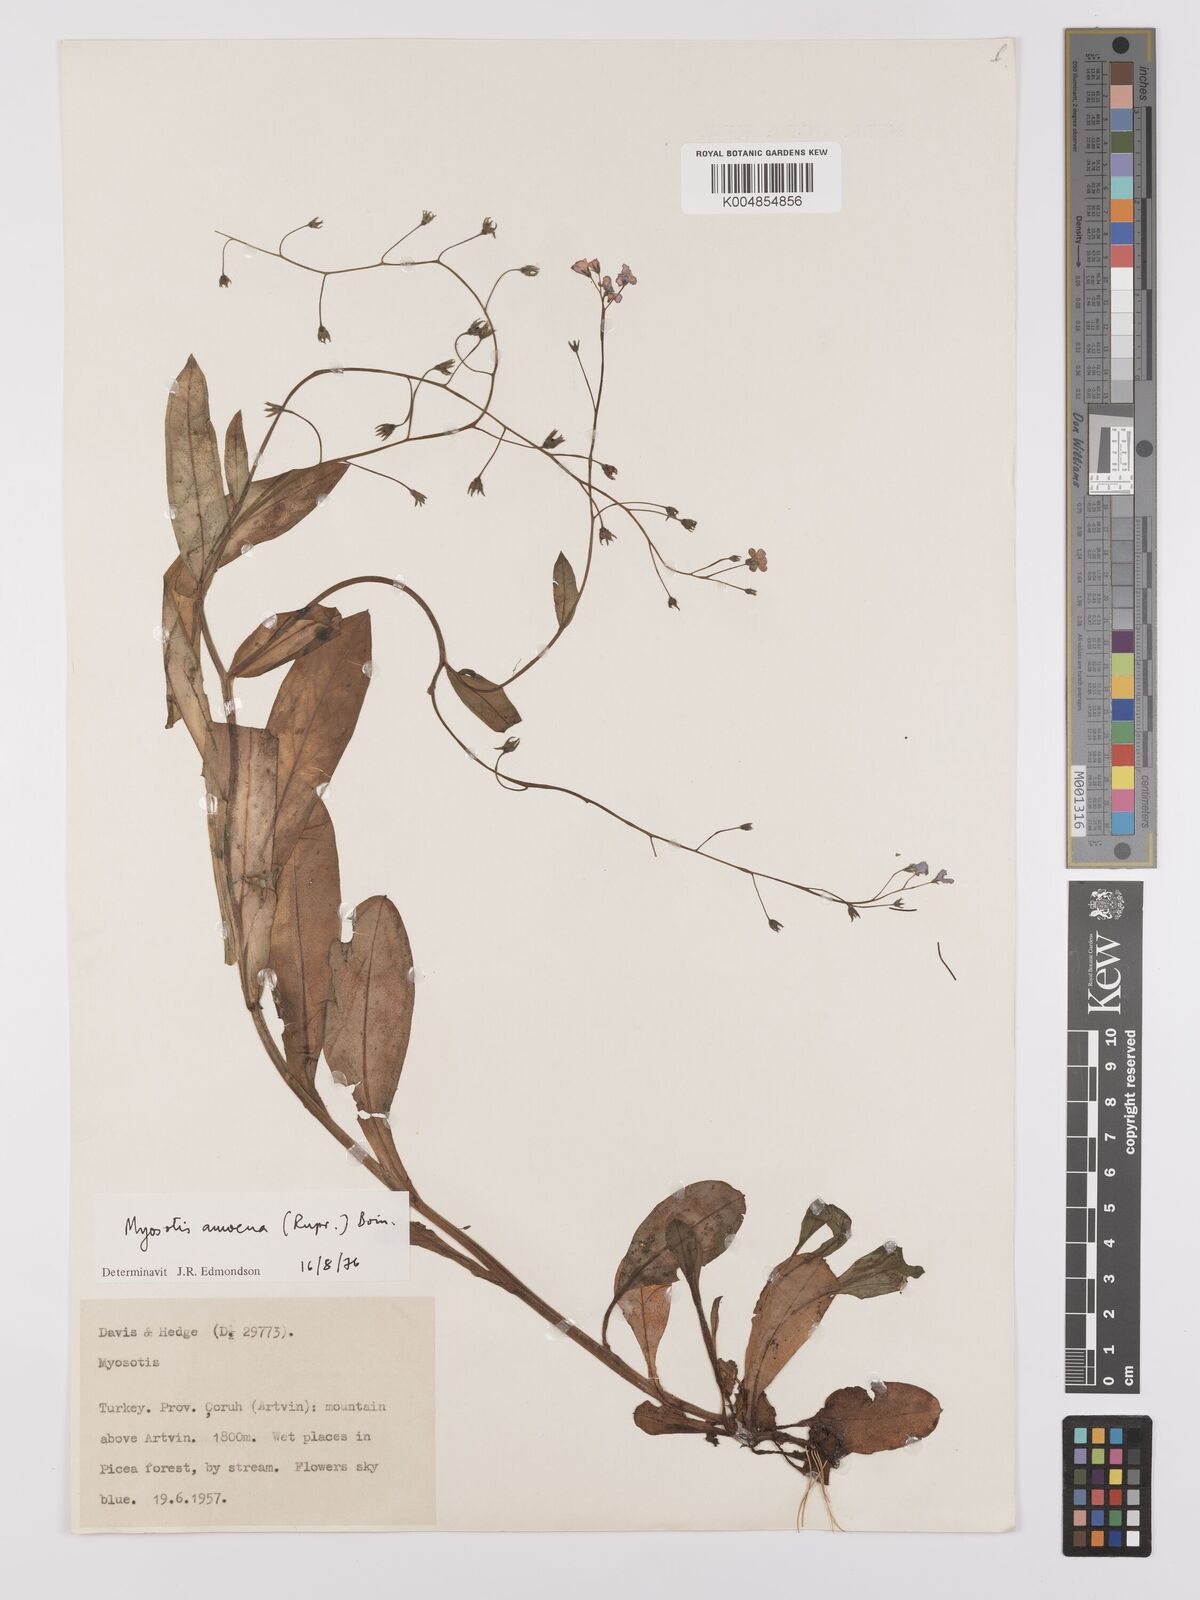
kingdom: Plantae
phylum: Tracheophyta
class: Magnoliopsida
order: Boraginales
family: Boraginaceae
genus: Myosotis
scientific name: Myosotis
